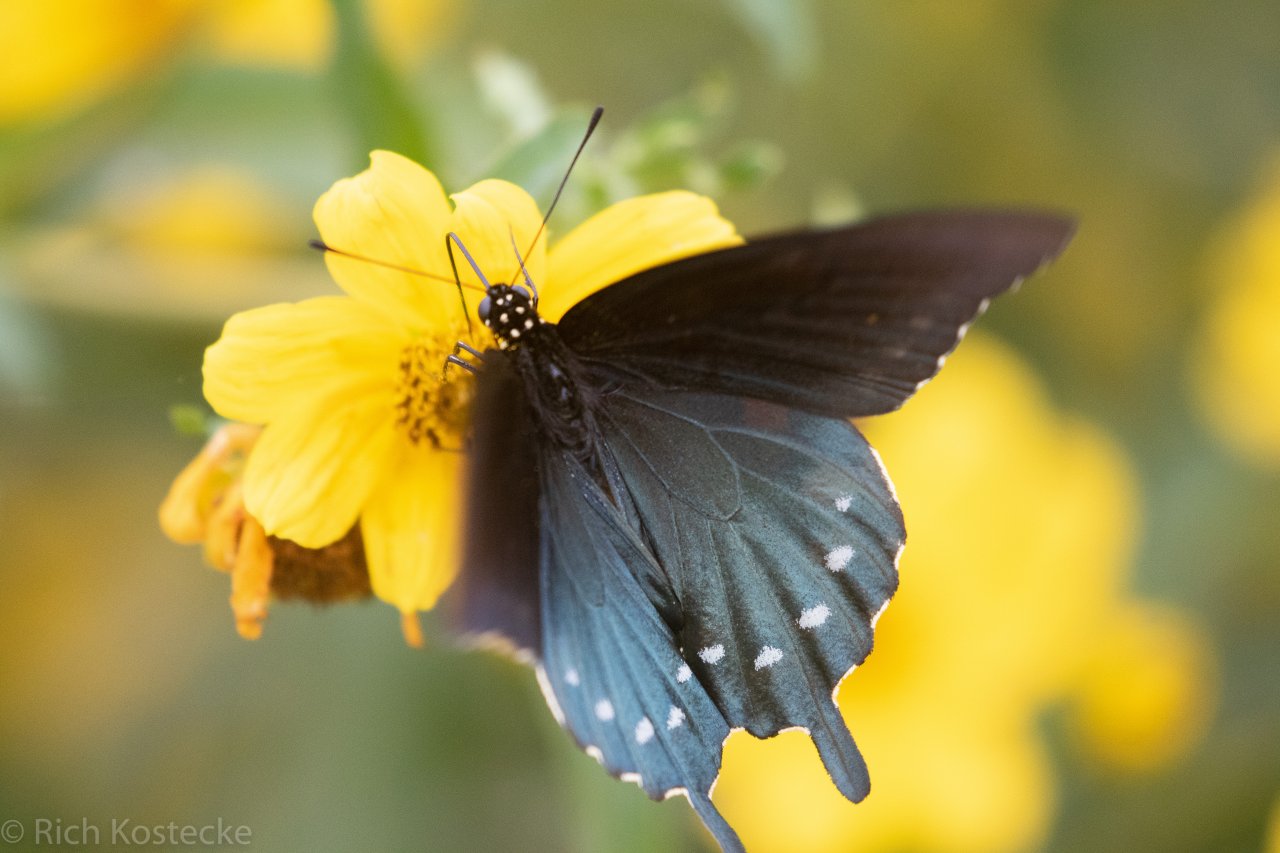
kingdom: Animalia
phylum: Arthropoda
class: Insecta
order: Lepidoptera
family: Papilionidae
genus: Battus
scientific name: Battus philenor
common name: Pipevine Swallowtail
